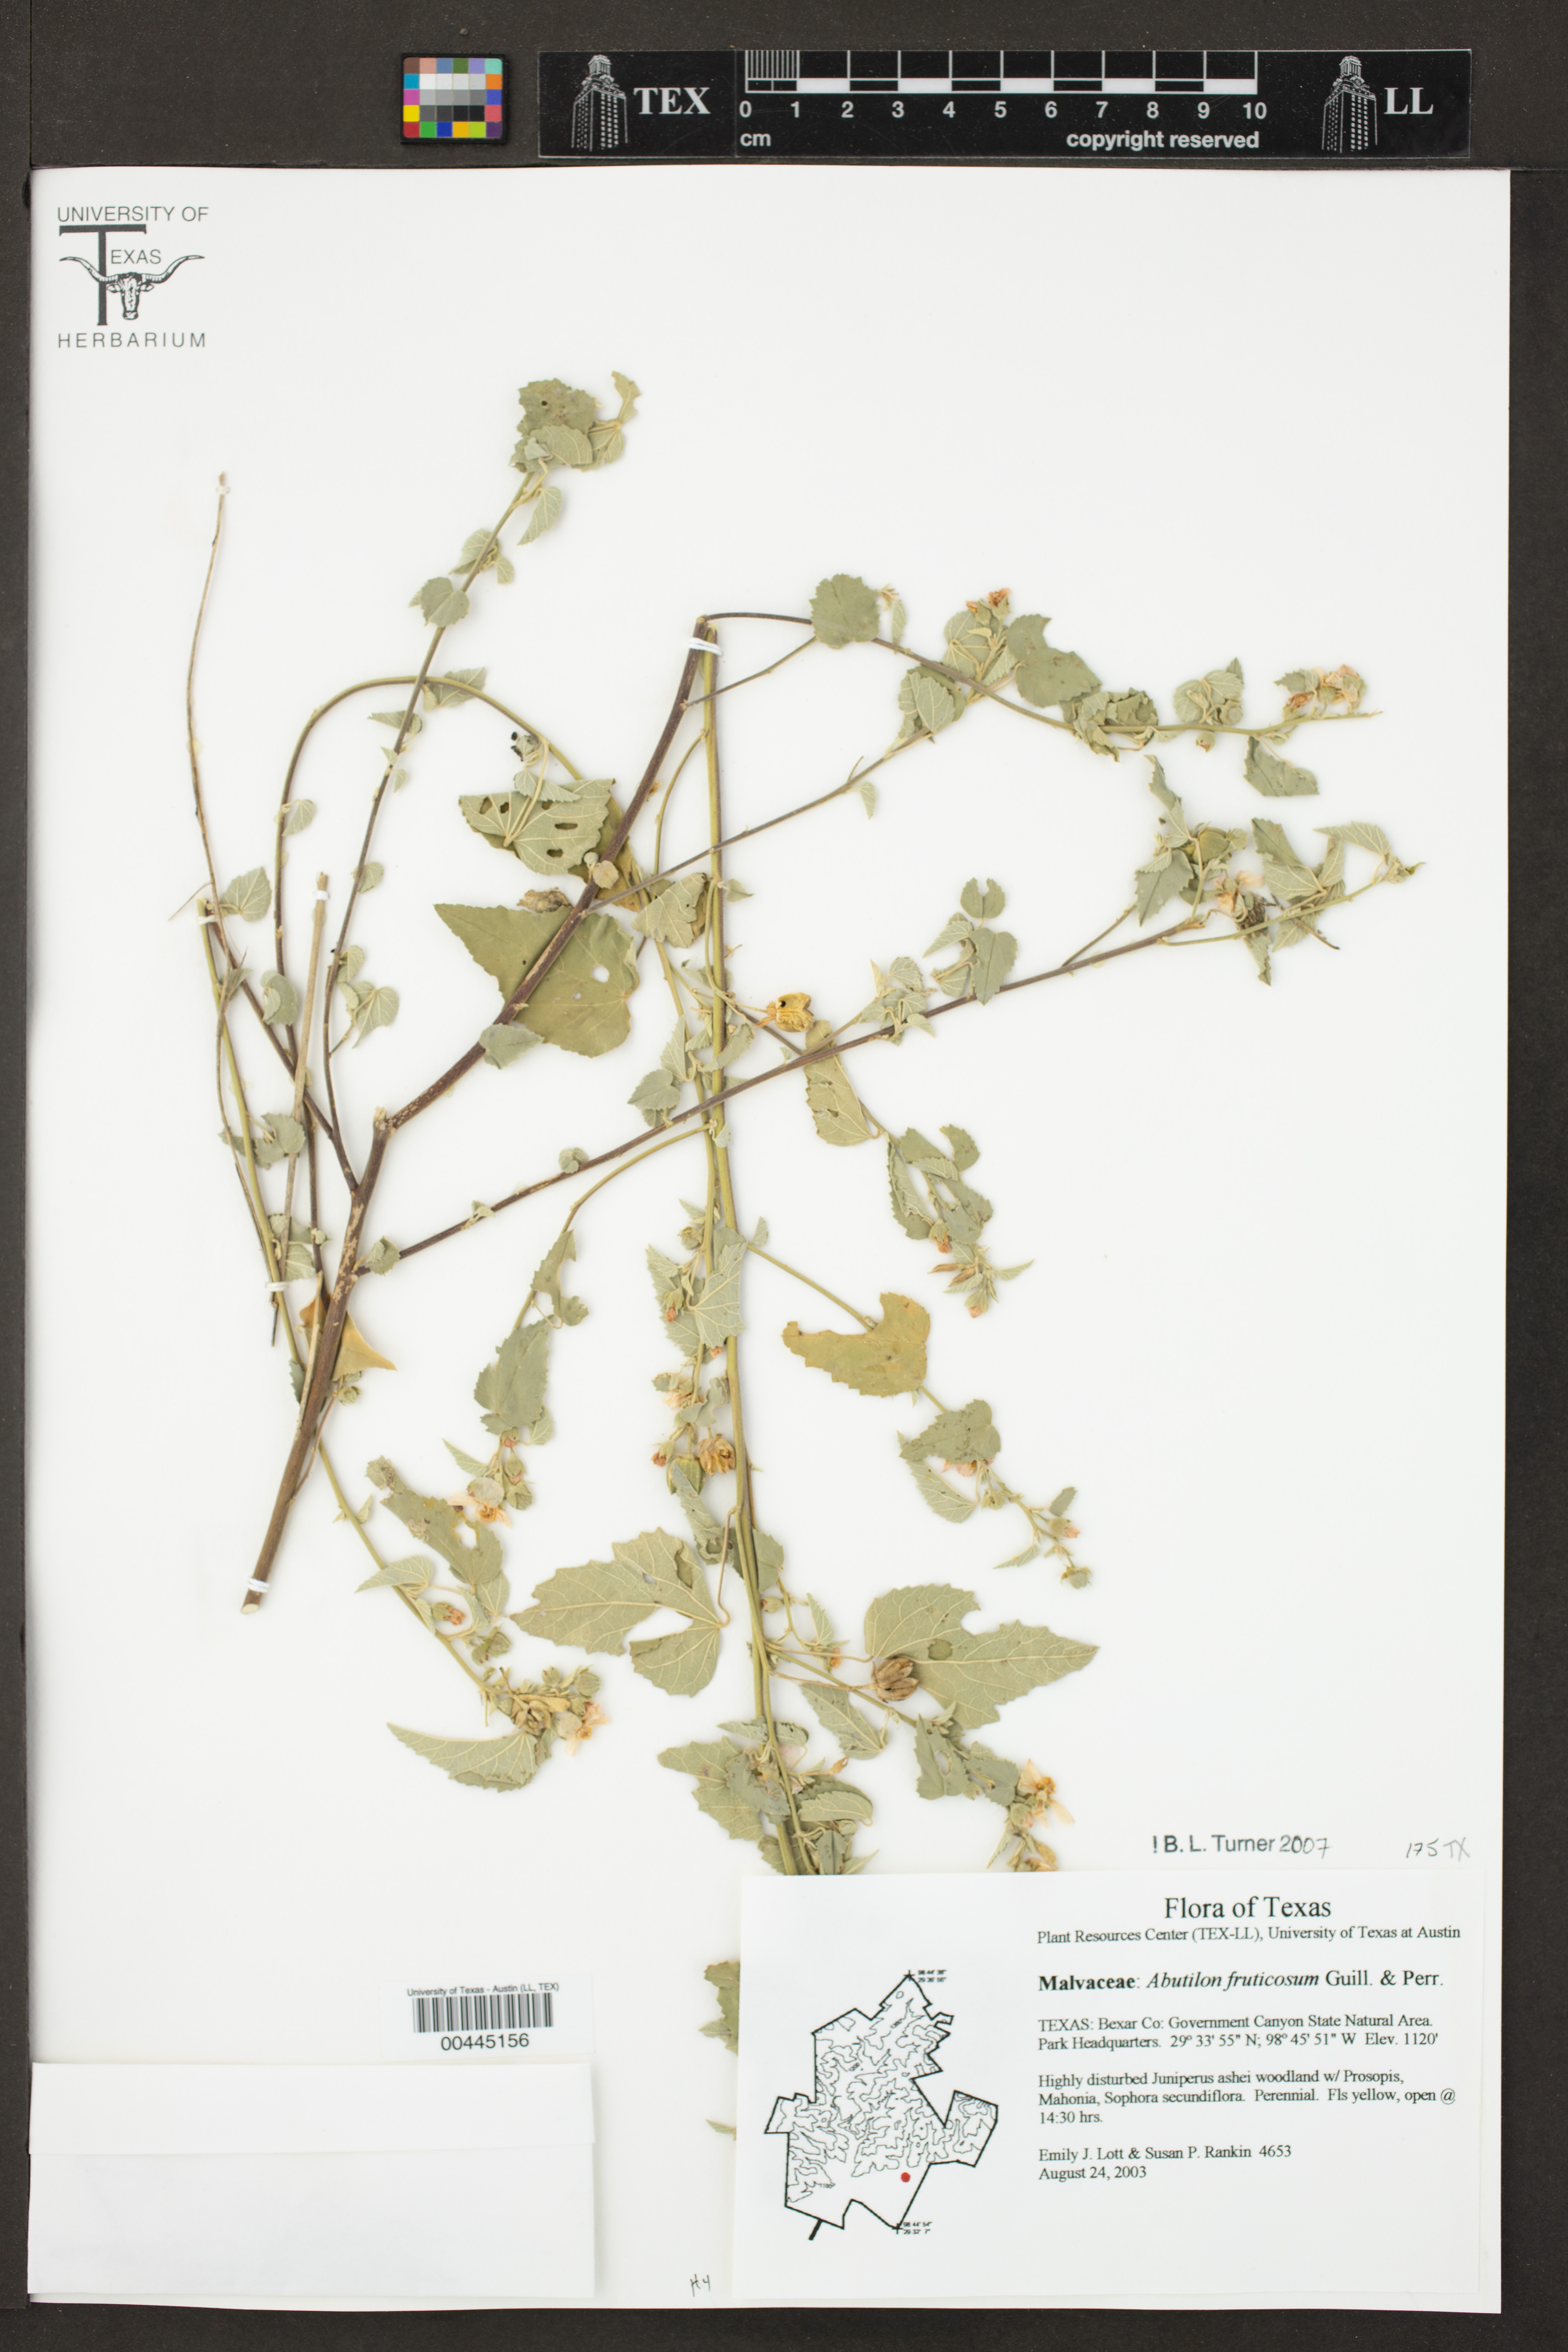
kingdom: Plantae
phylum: Tracheophyta
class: Magnoliopsida
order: Malvales
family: Malvaceae
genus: Abutilon
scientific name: Abutilon fruticosum
